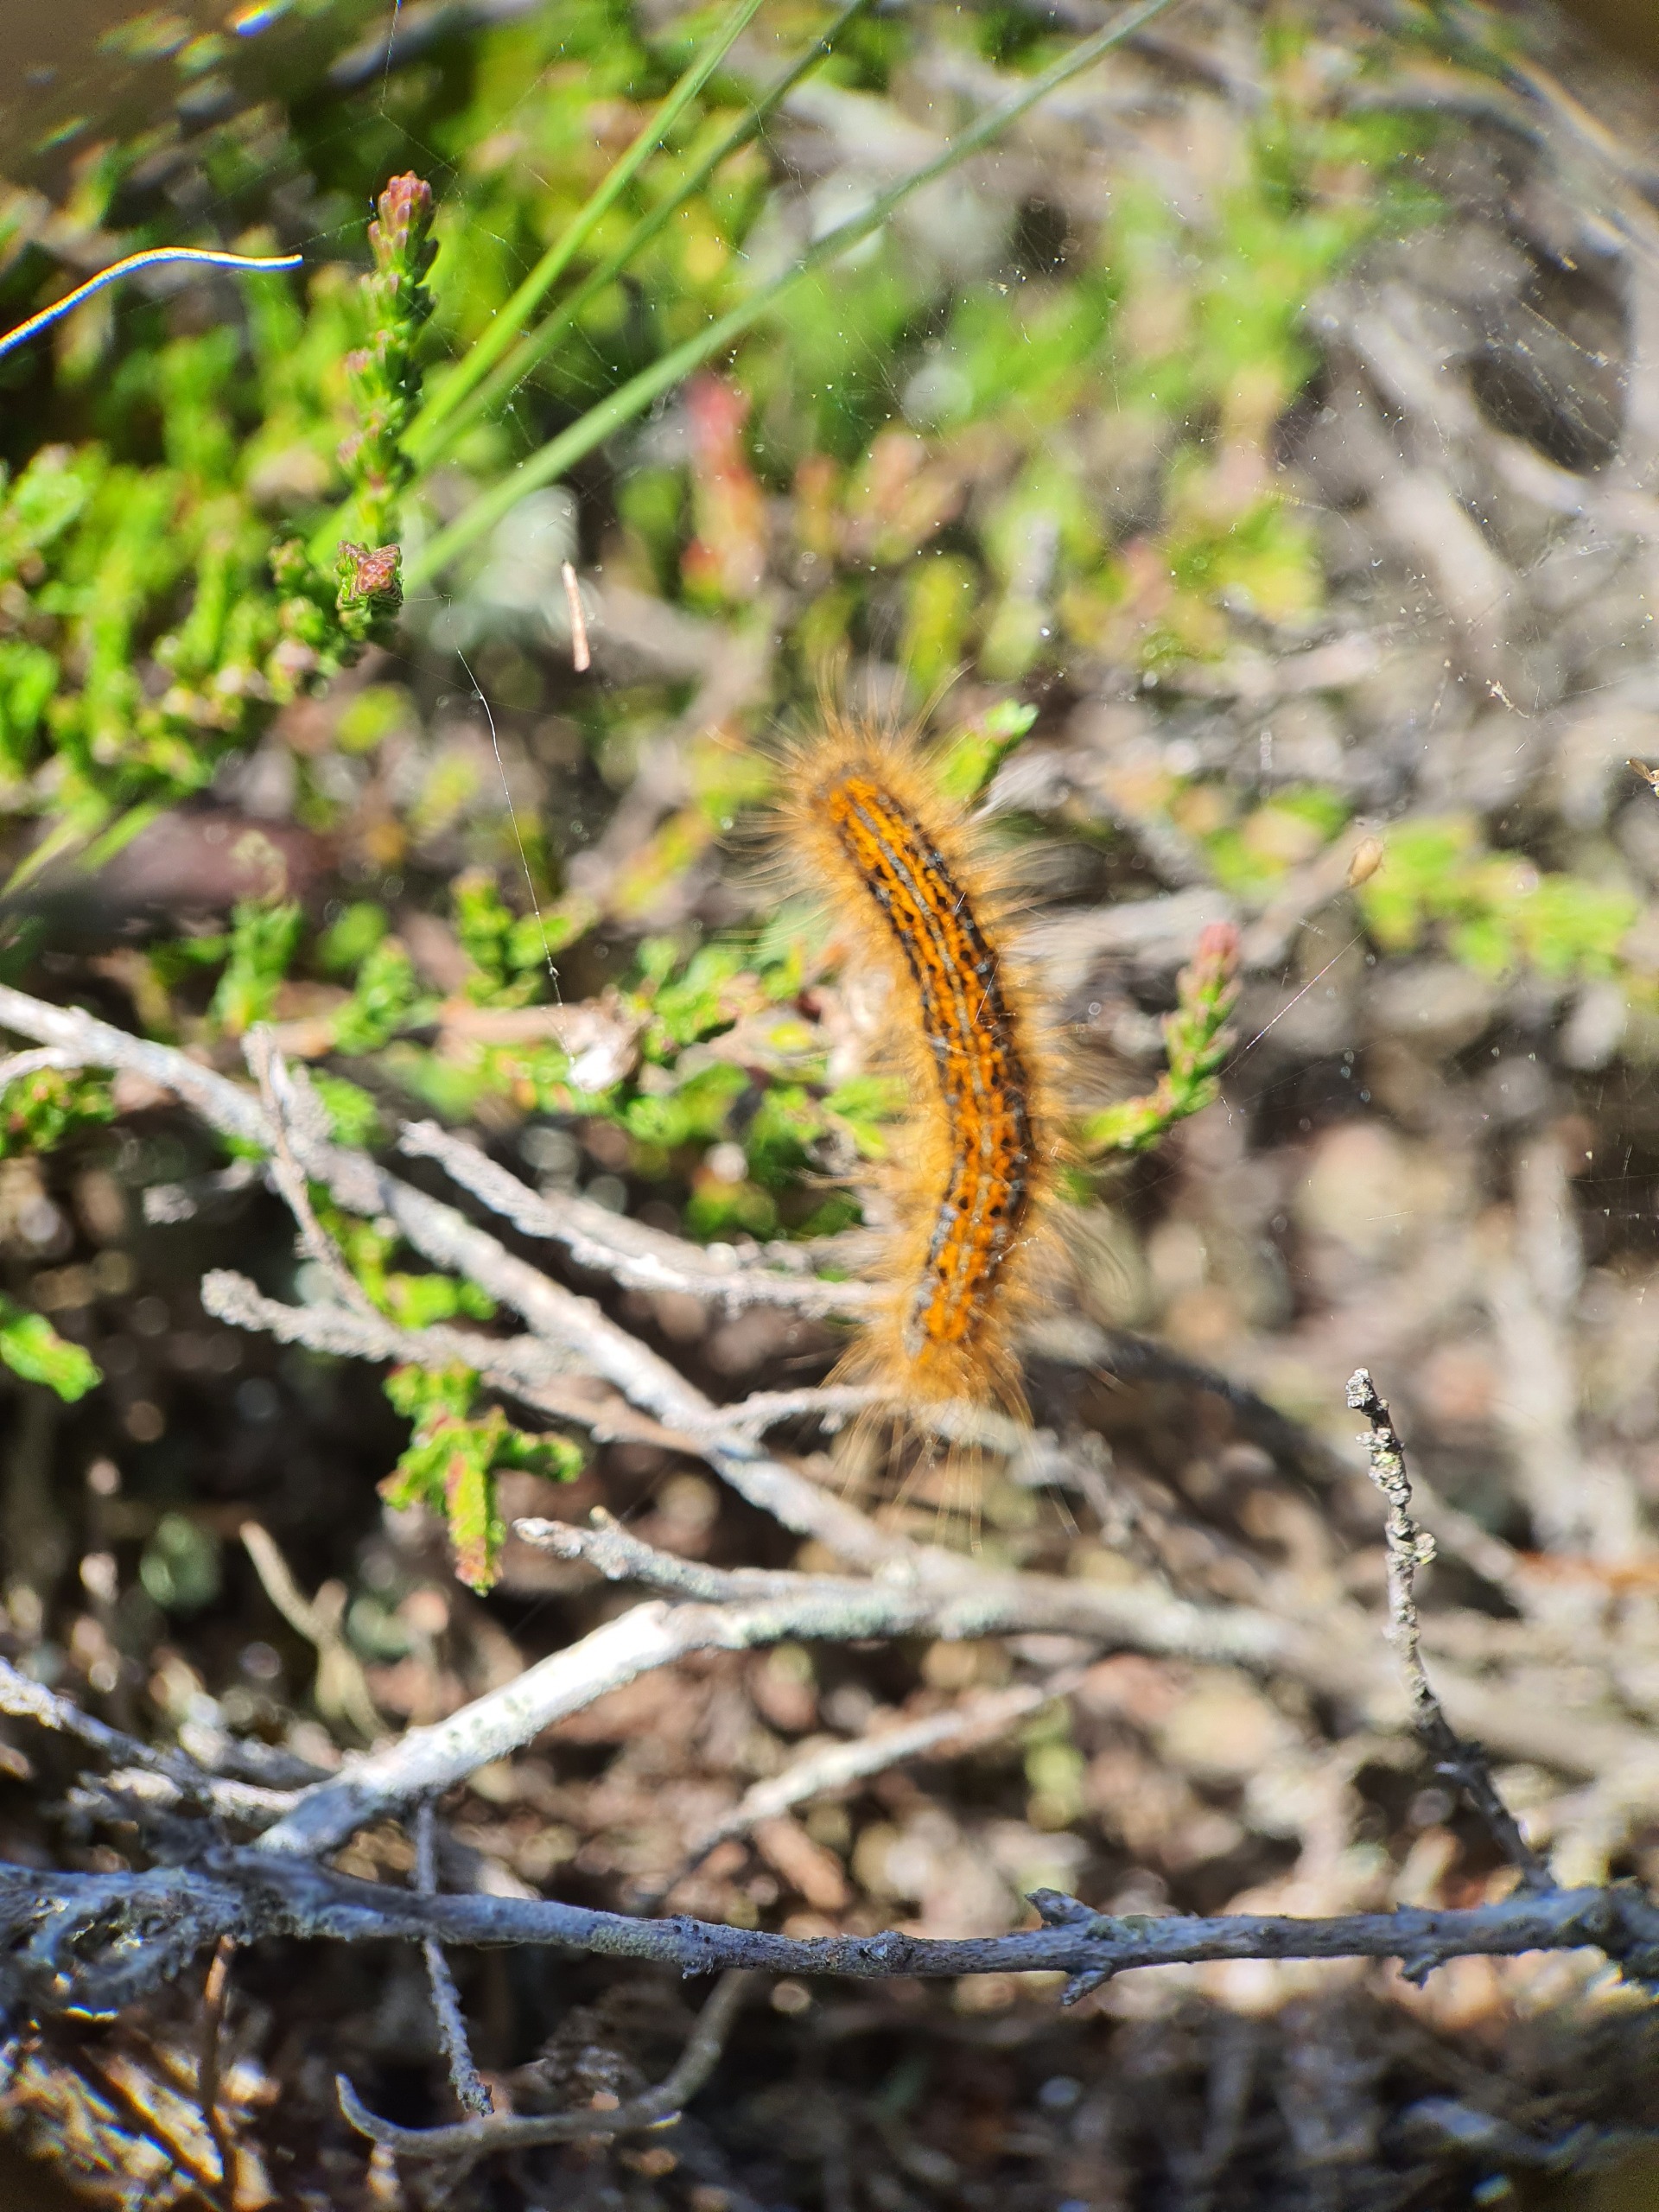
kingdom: Animalia
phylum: Arthropoda
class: Insecta
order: Lepidoptera
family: Lasiocampidae
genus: Malacosoma
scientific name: Malacosoma castrensis
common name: Redespinder
